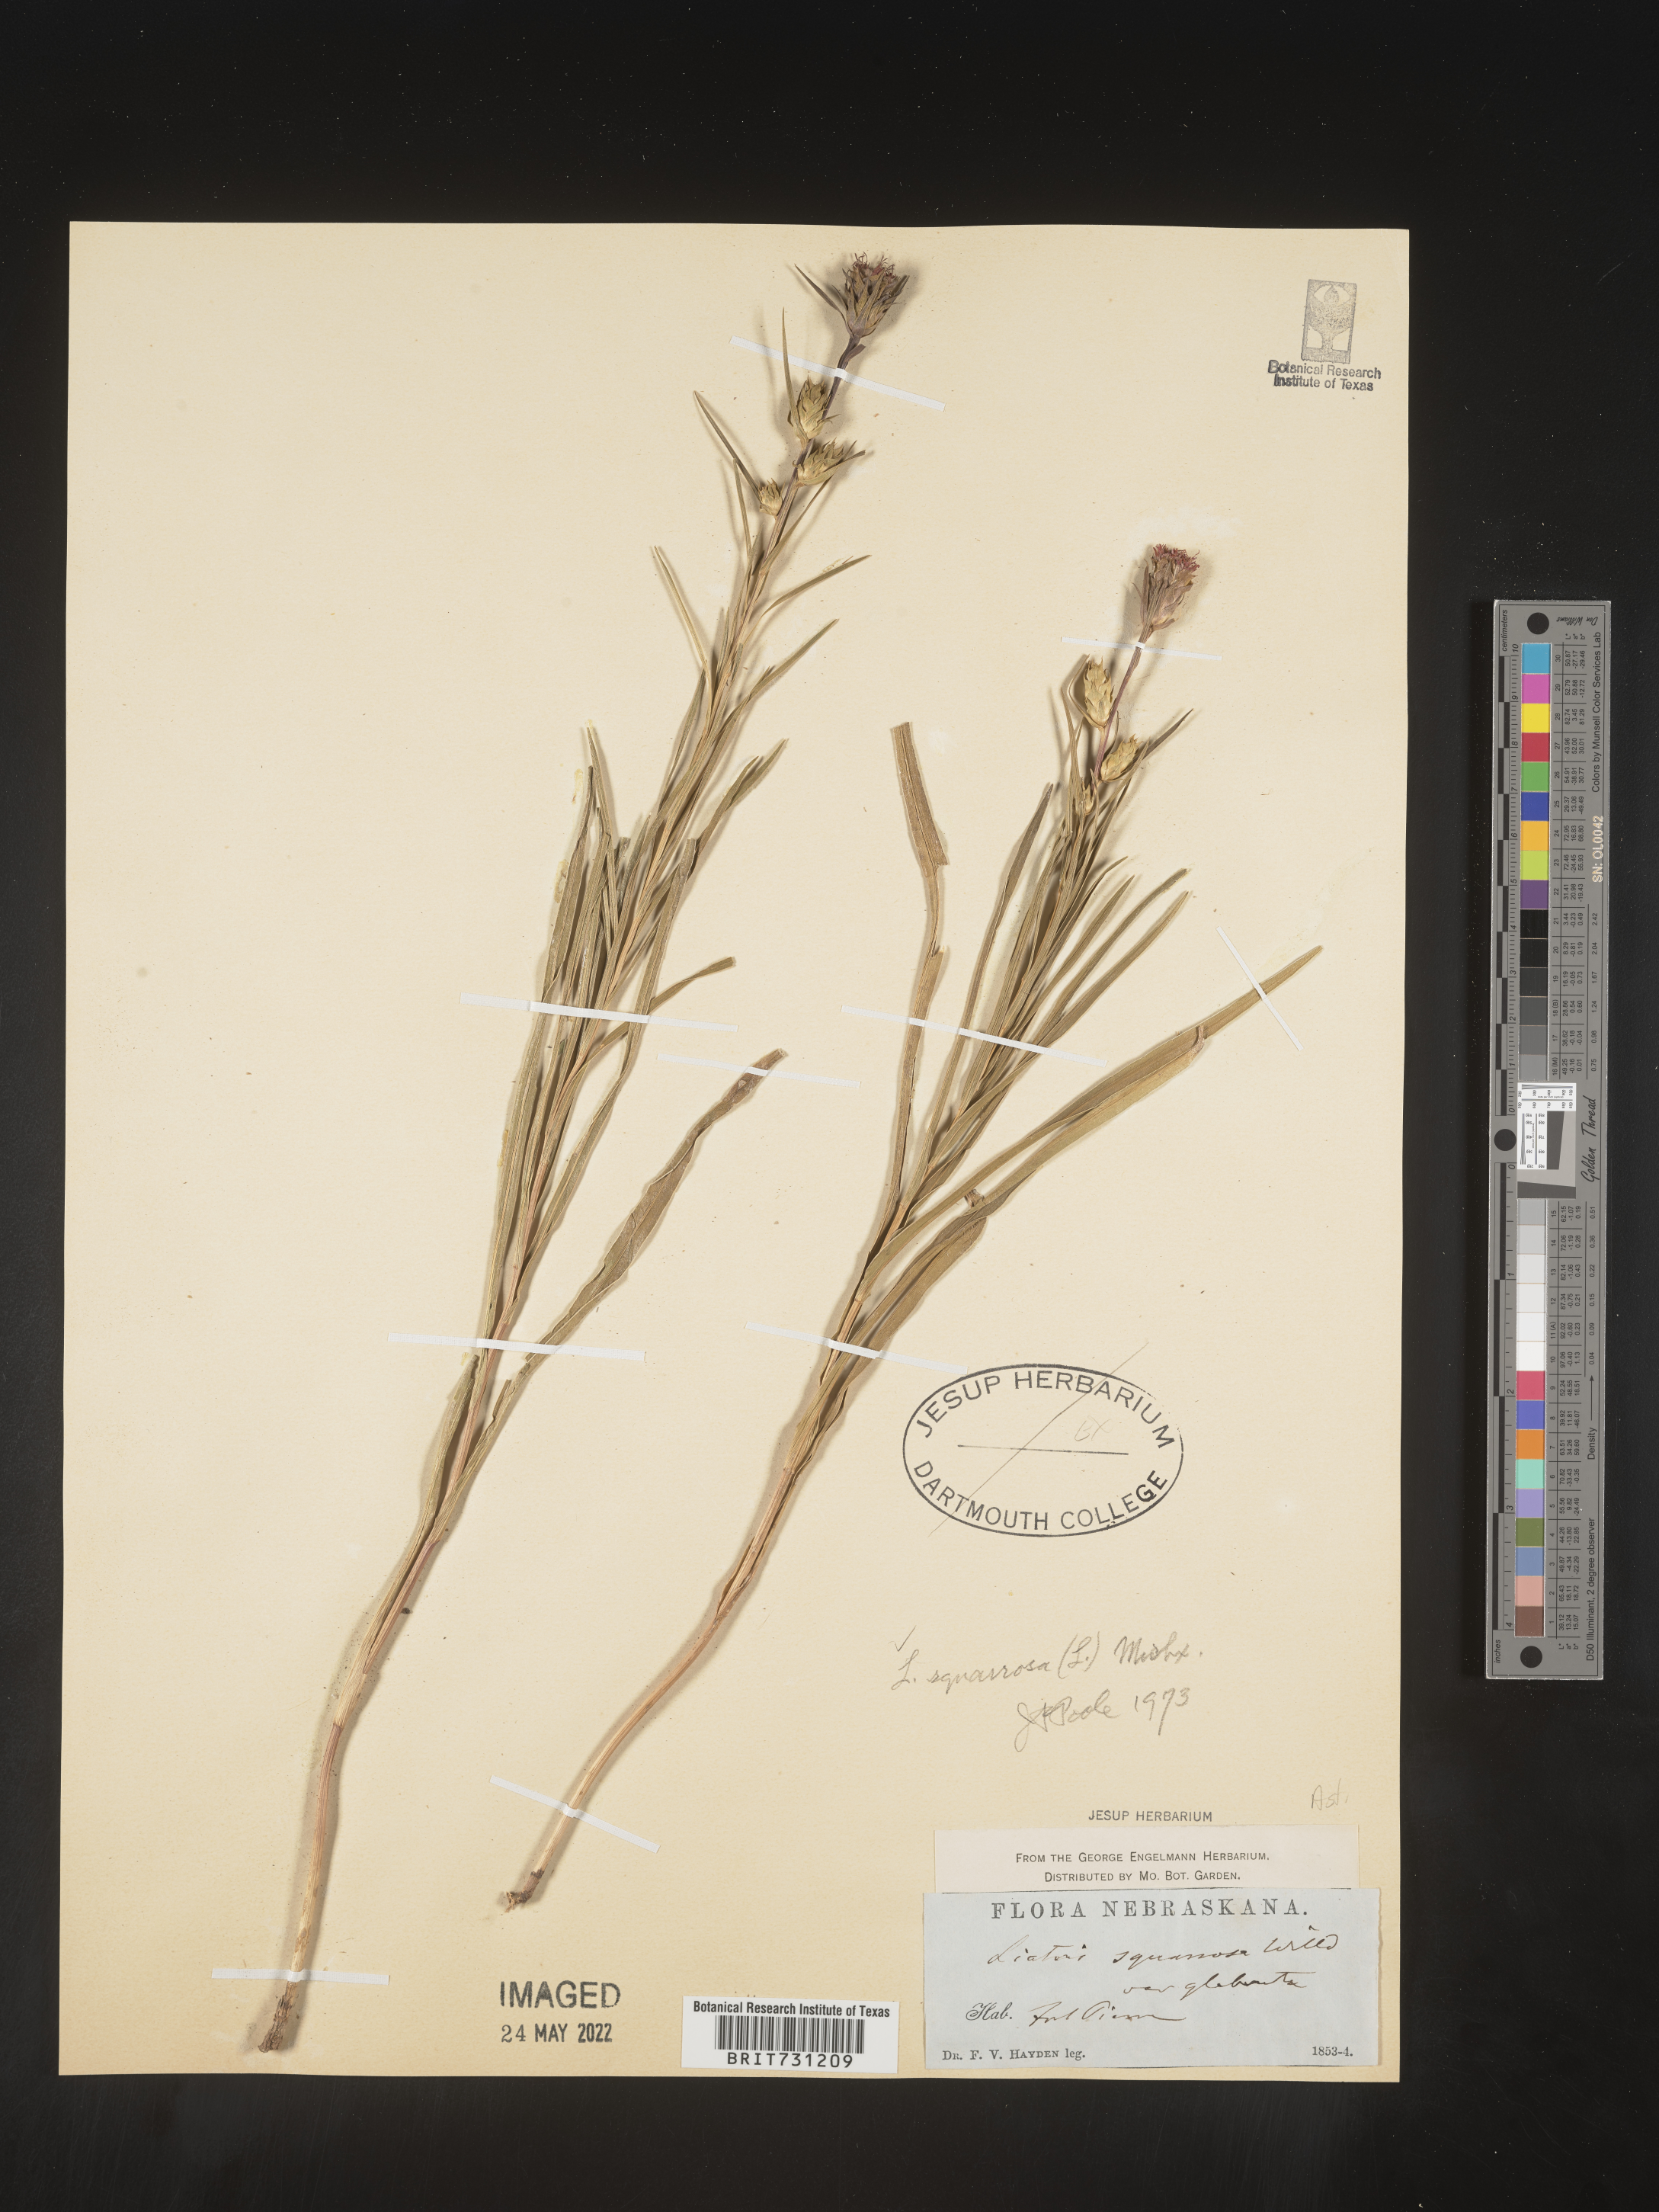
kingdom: Plantae
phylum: Tracheophyta
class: Magnoliopsida
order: Asterales
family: Asteraceae
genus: Liatris
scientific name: Liatris squarrosa
